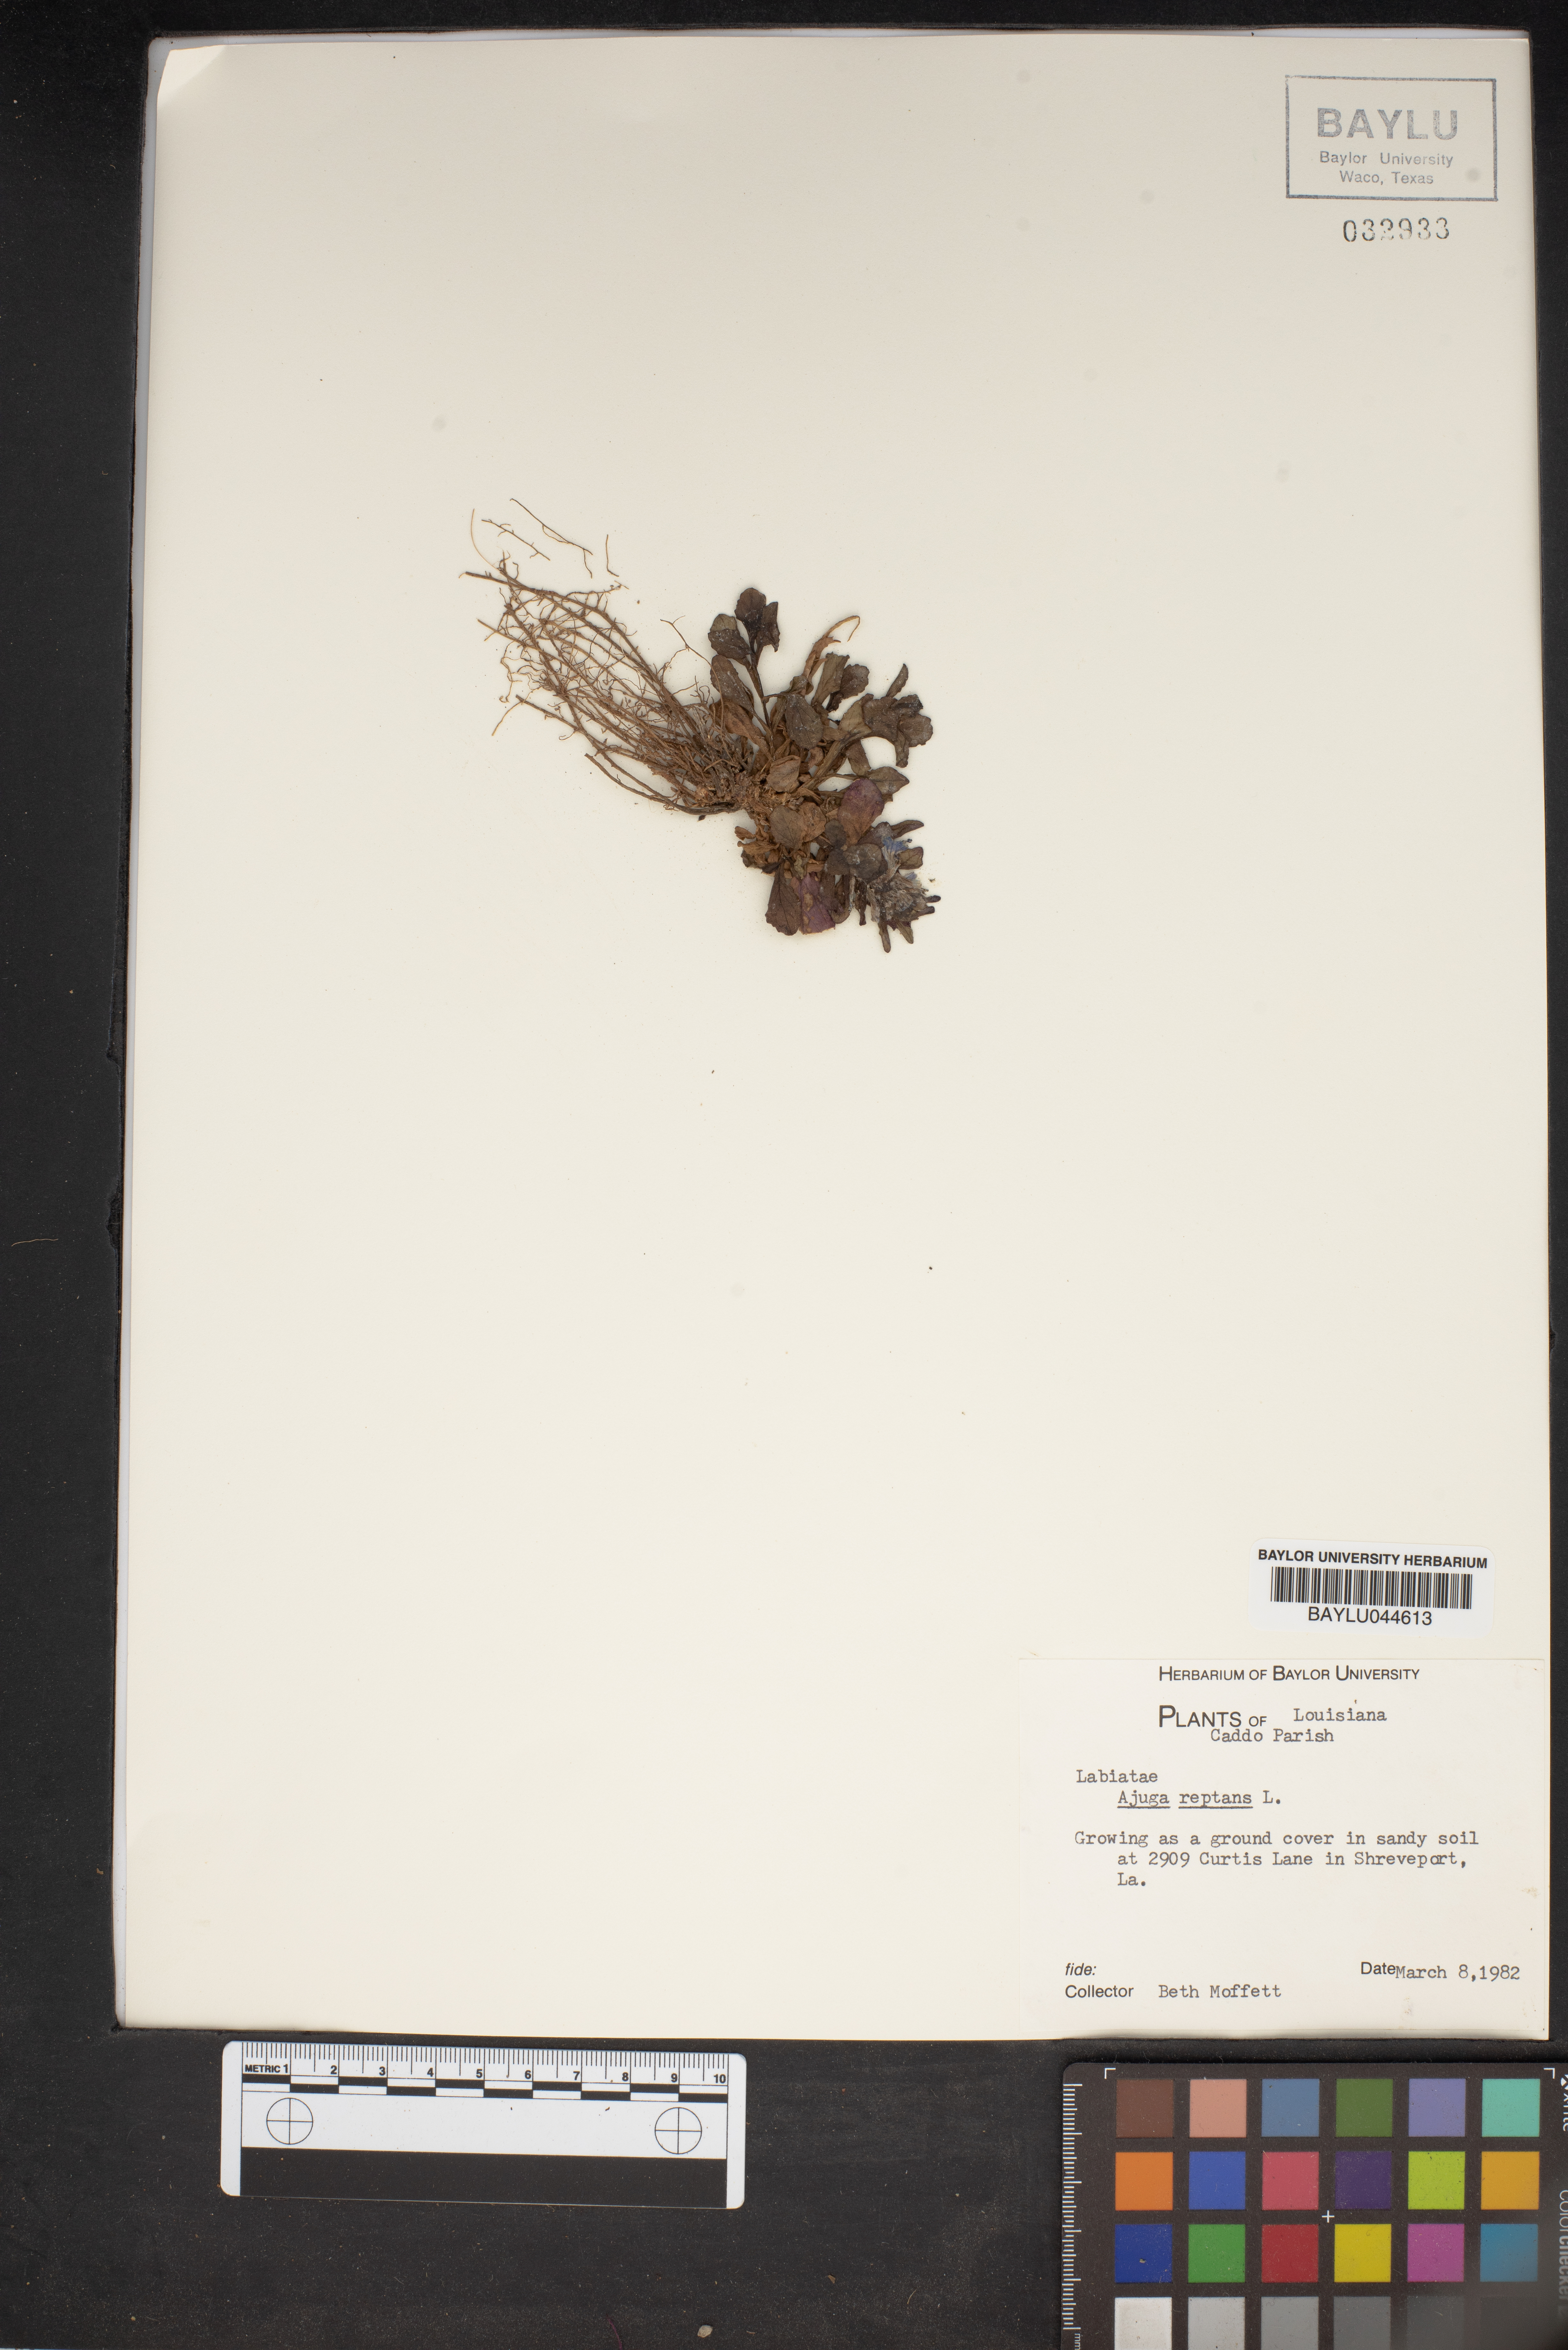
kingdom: Plantae
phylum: Tracheophyta
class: Magnoliopsida
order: Lamiales
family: Lamiaceae
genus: Ajuga
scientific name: Ajuga reptans
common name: Bugle
